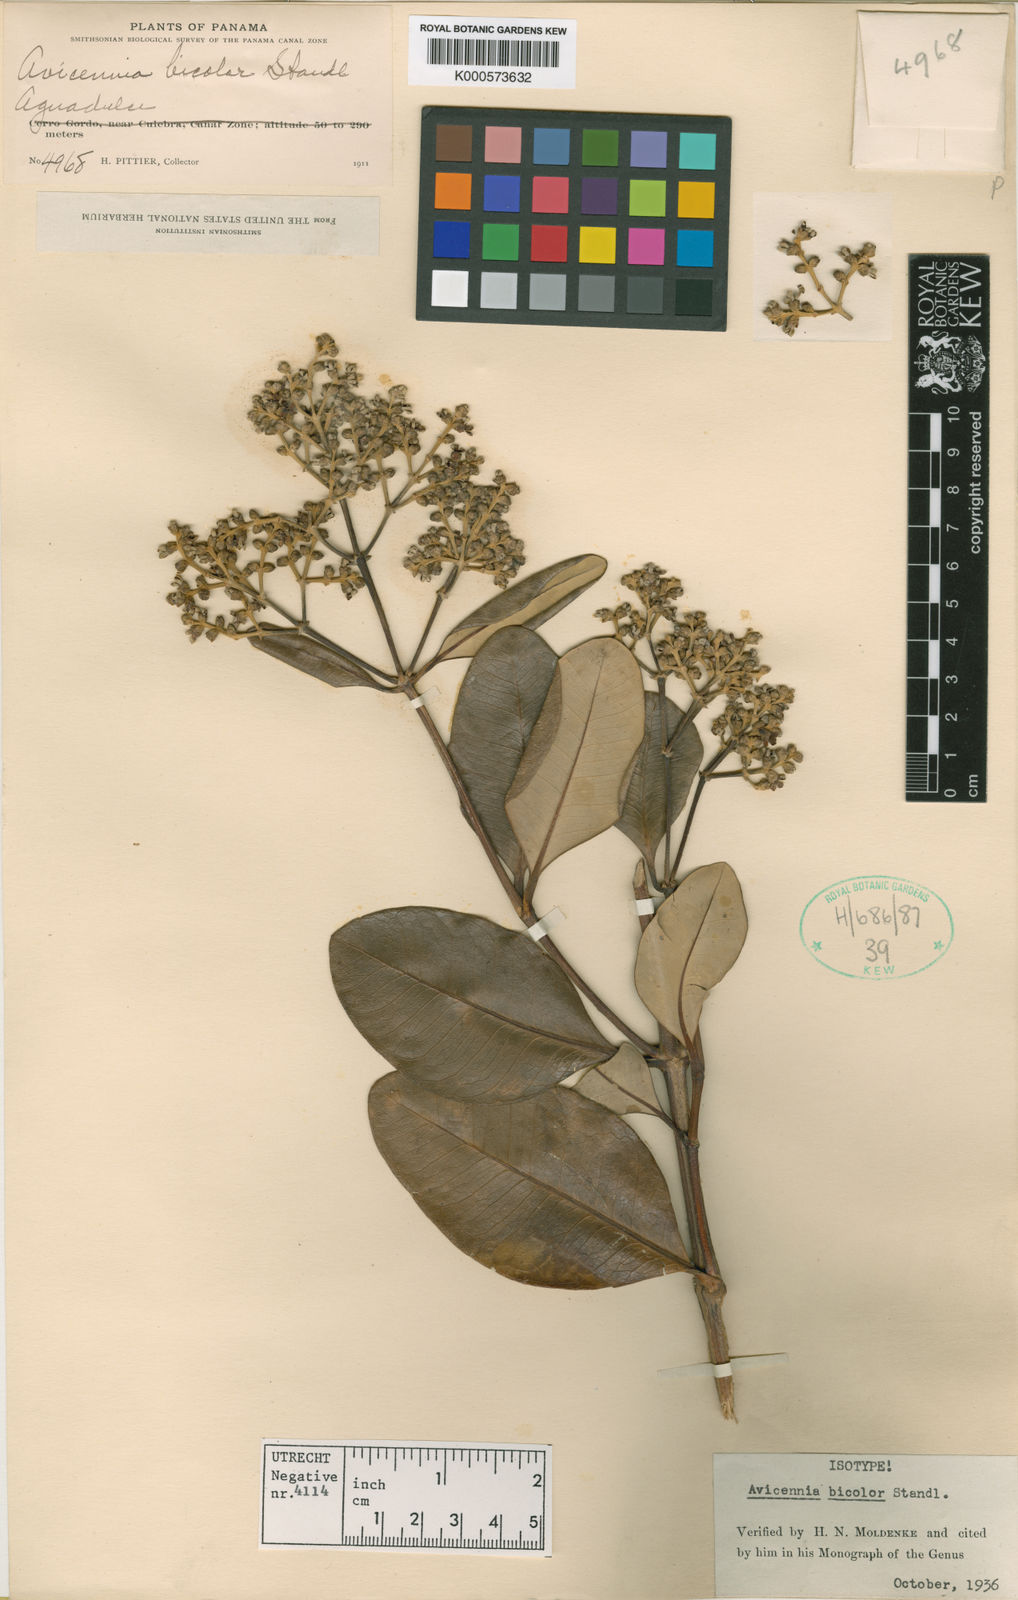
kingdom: Plantae
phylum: Tracheophyta
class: Magnoliopsida
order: Lamiales
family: Acanthaceae
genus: Avicennia
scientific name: Avicennia bicolor
